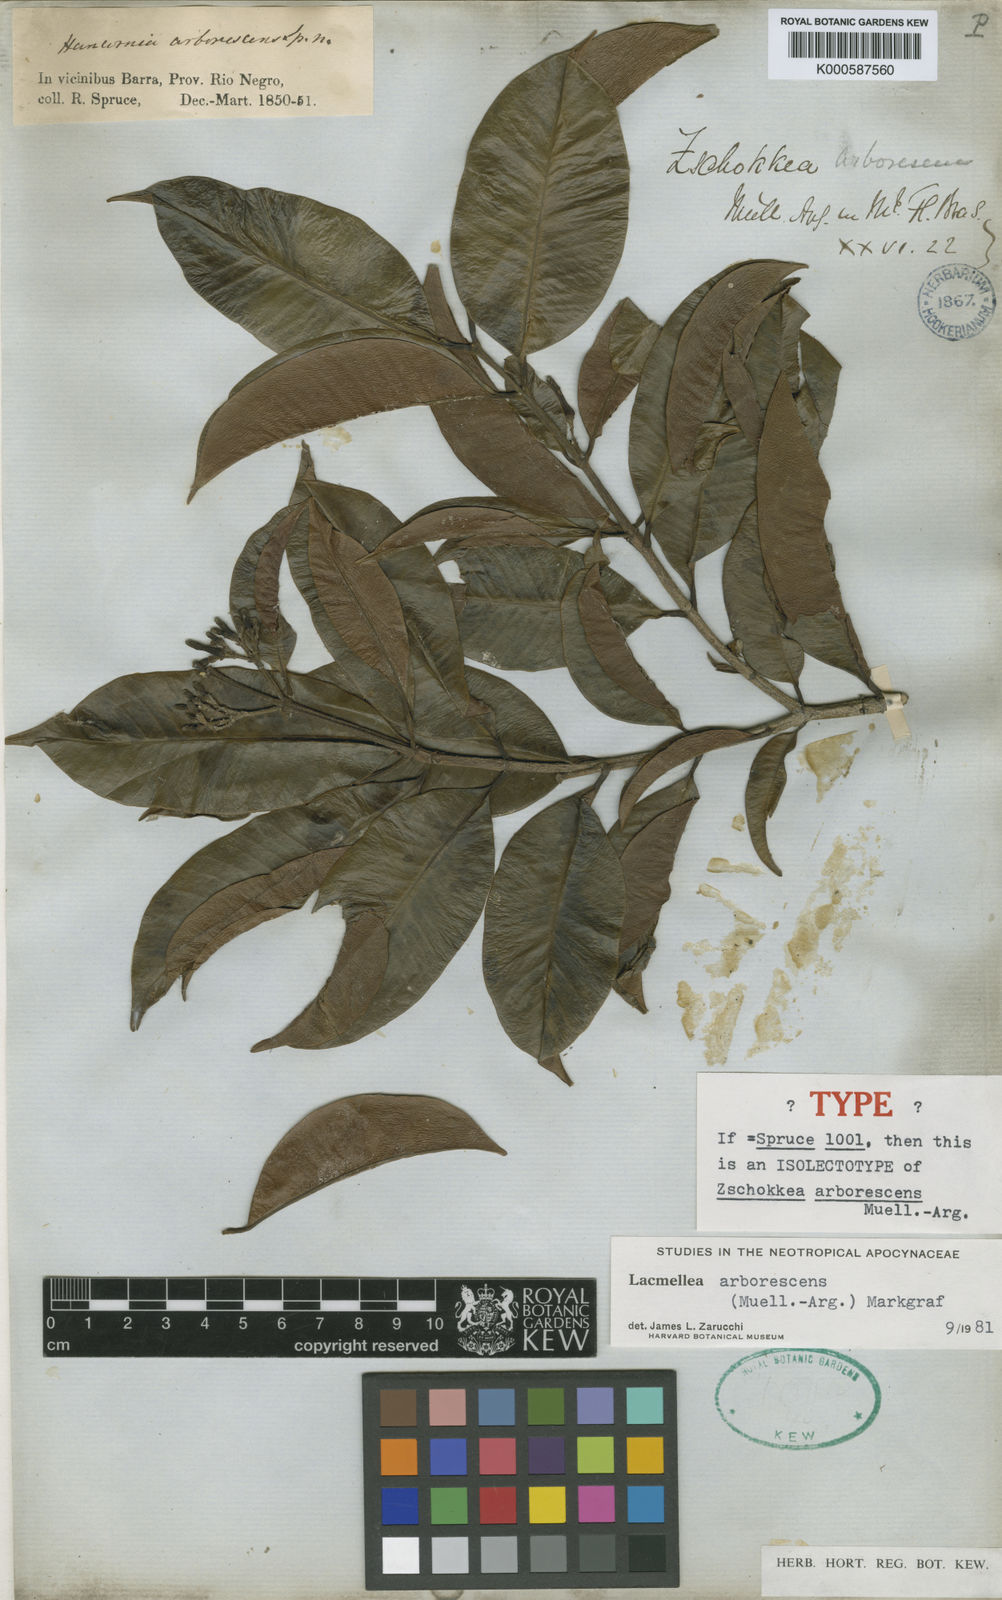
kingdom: Plantae
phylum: Tracheophyta
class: Magnoliopsida
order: Gentianales
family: Apocynaceae
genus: Lacmellea
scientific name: Lacmellea
